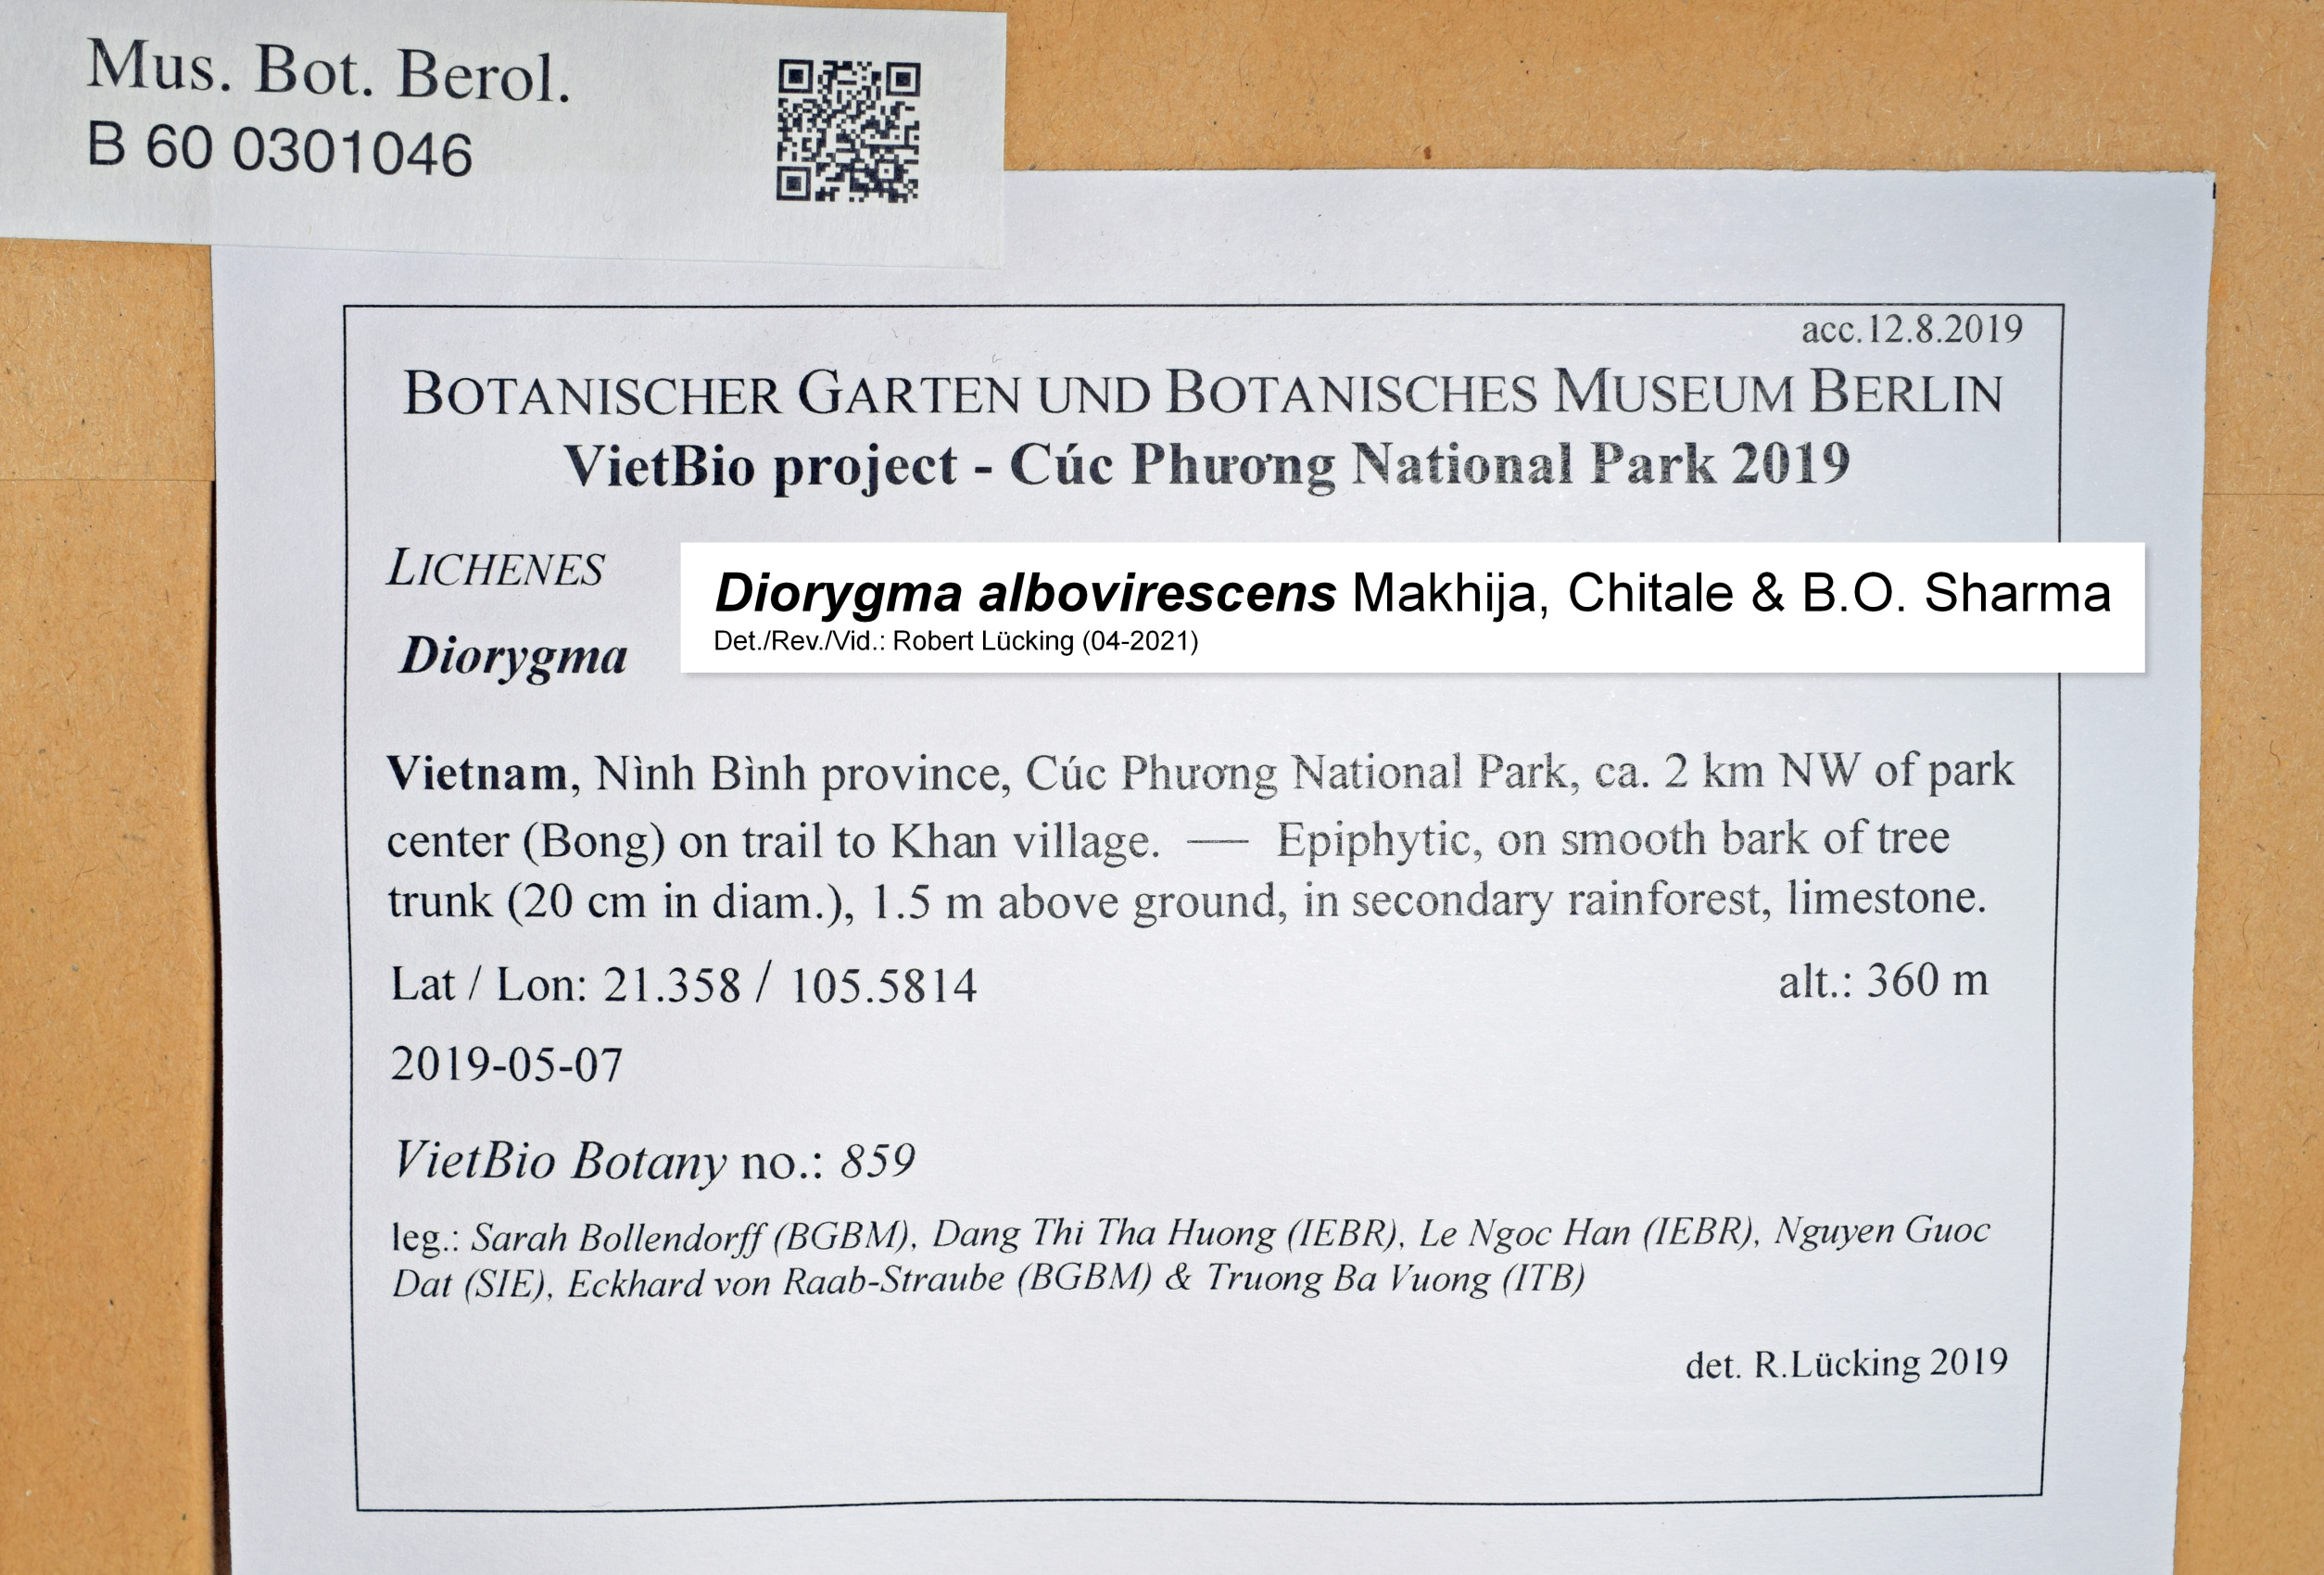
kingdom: Fungi
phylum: Ascomycota
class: Lecanoromycetes
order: Ostropales
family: Graphidaceae
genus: Diorygma
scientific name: Diorygma
